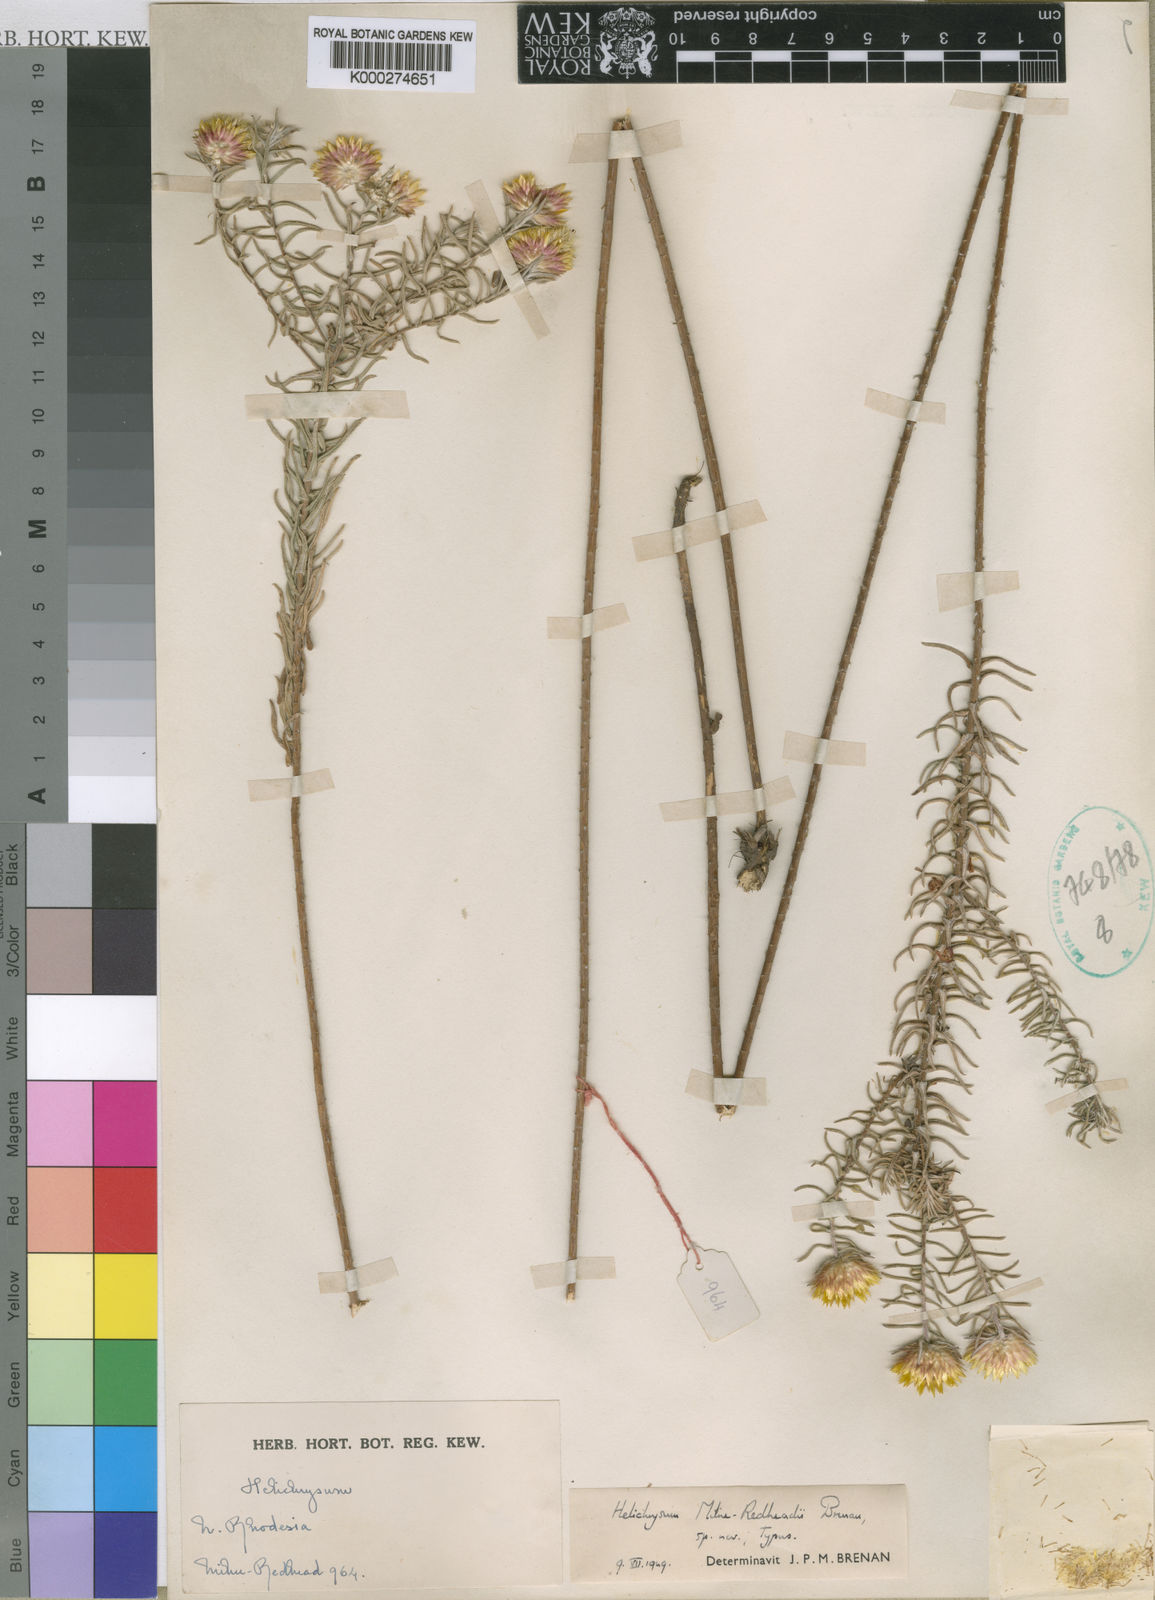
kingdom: Plantae
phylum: Tracheophyta
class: Magnoliopsida
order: Asterales
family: Asteraceae
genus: Helichrysum
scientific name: Helichrysum milne-redheadii
